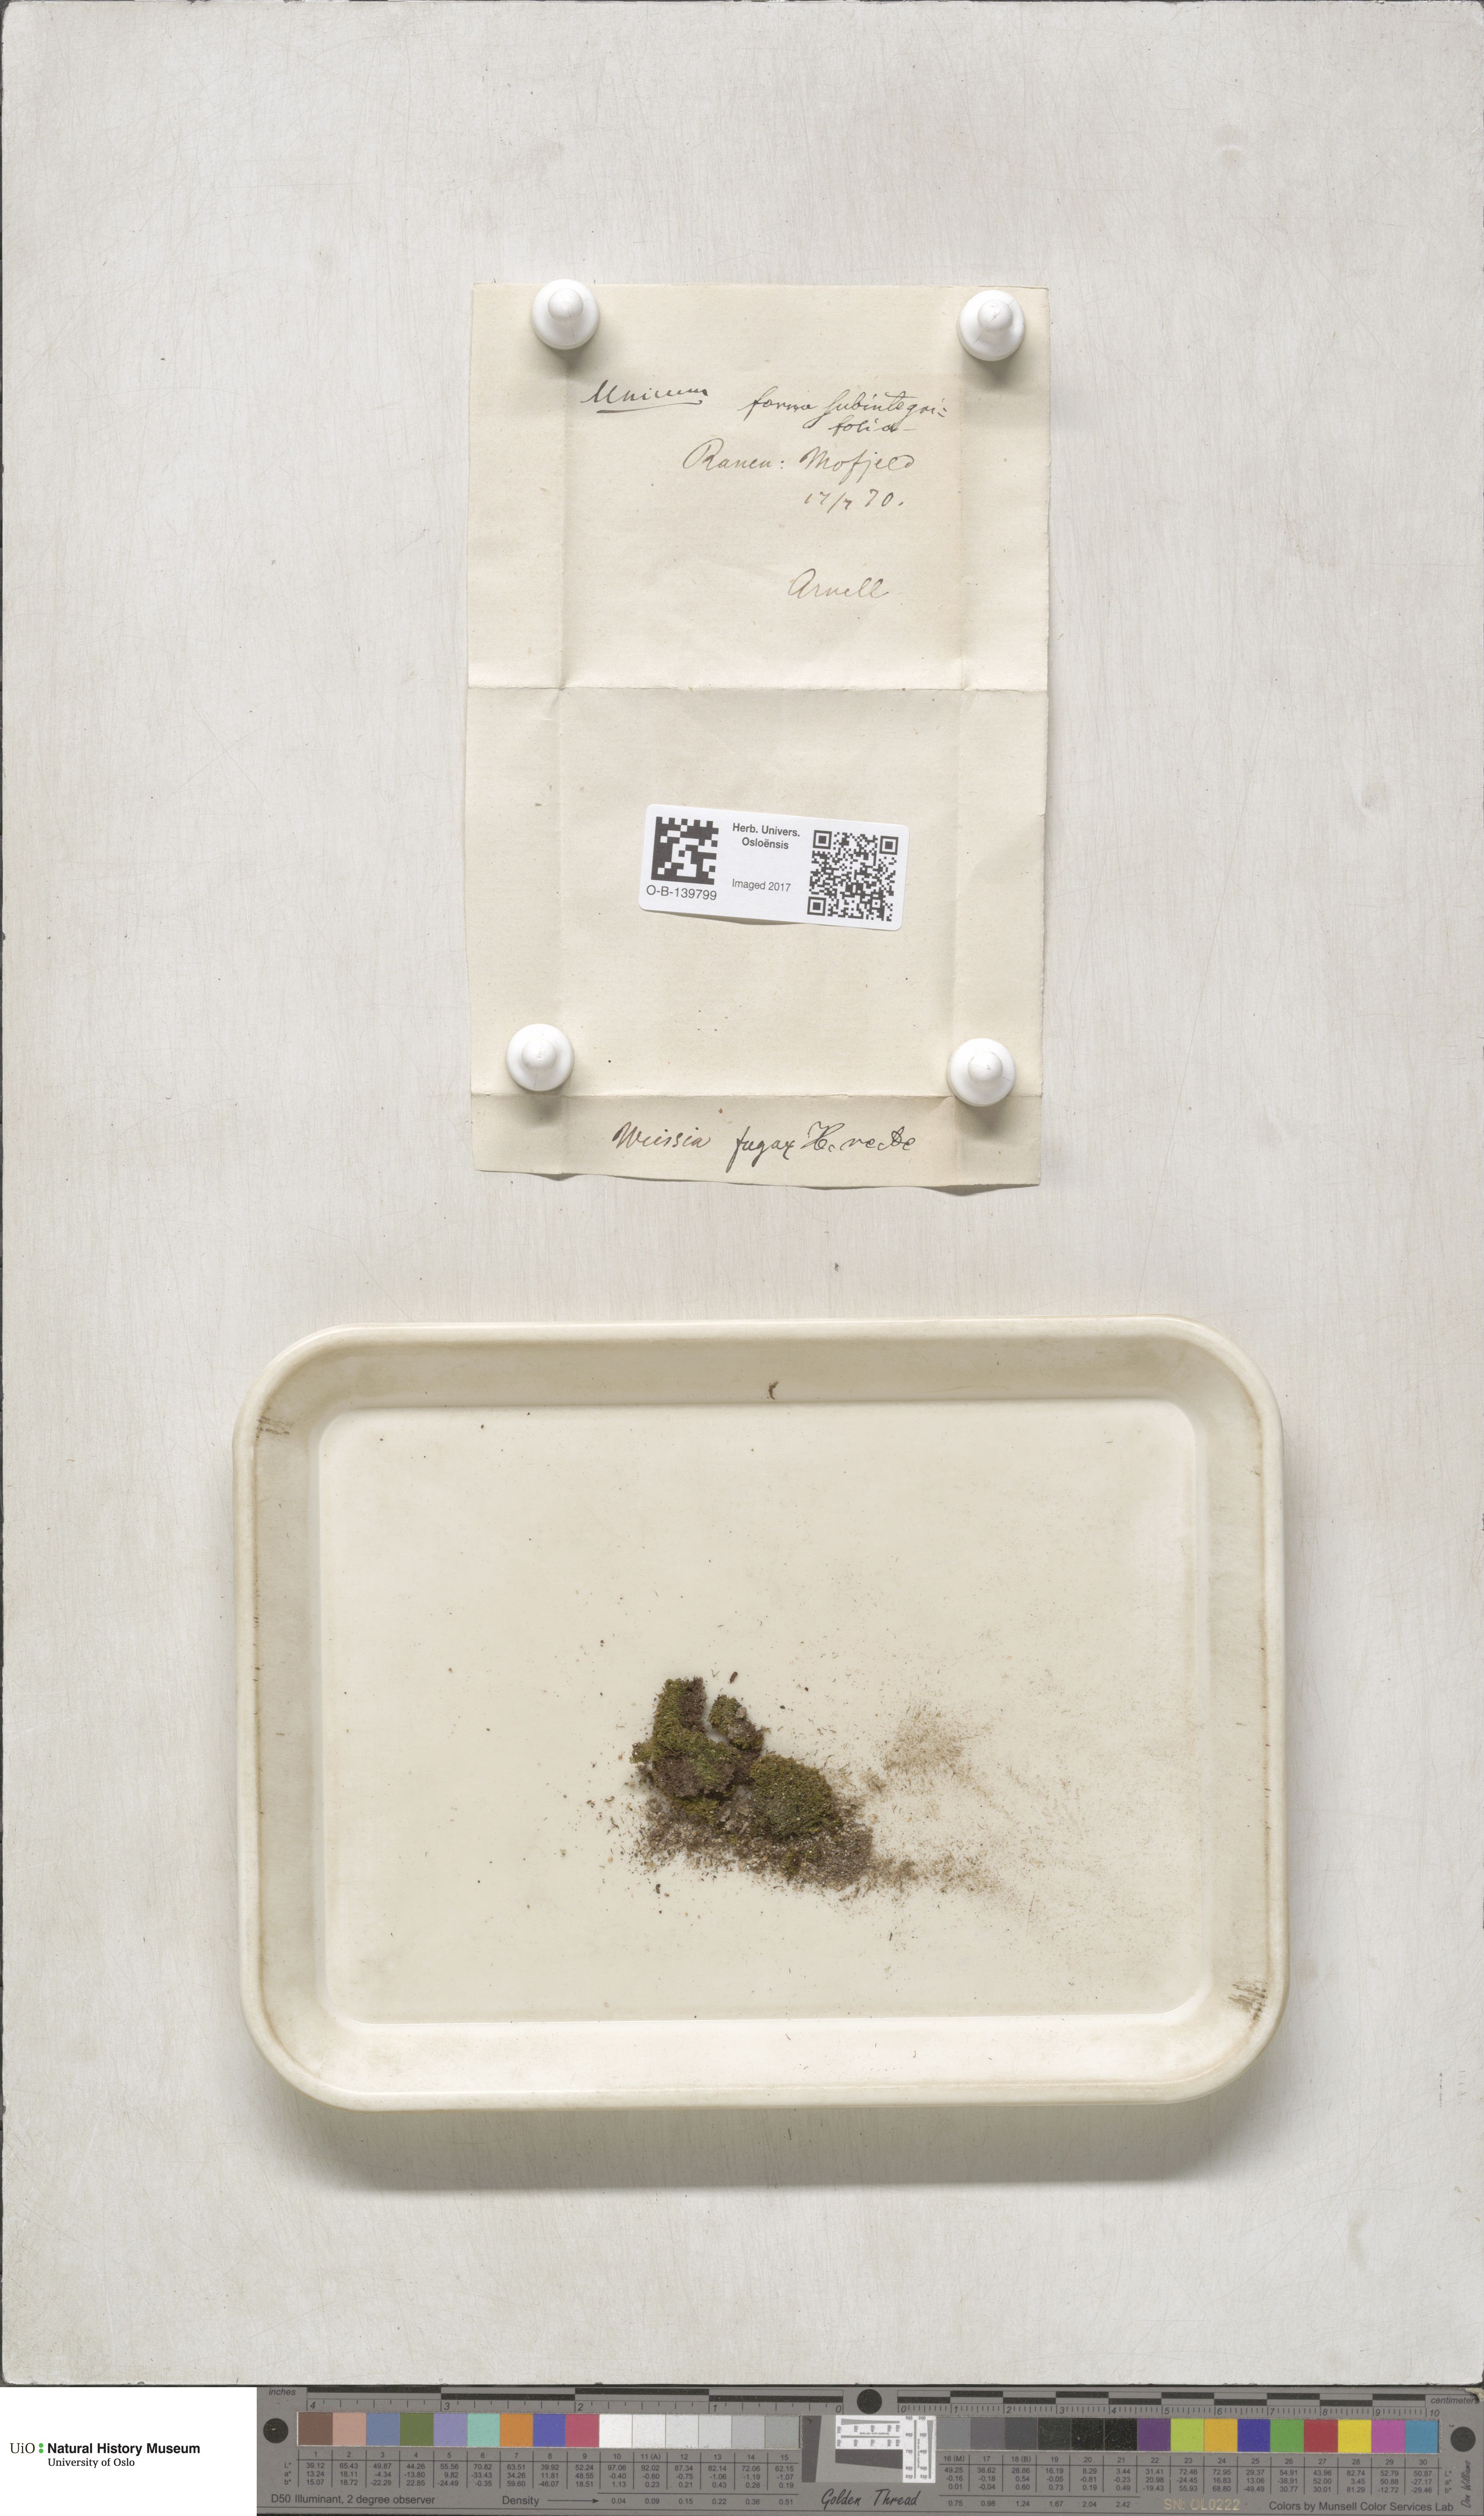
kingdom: Plantae
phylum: Bryophyta
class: Bryopsida
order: Dicranales
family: Rhabdoweisiaceae
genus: Rhabdoweisia
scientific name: Rhabdoweisia fugax
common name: Dwarf streak-moss
